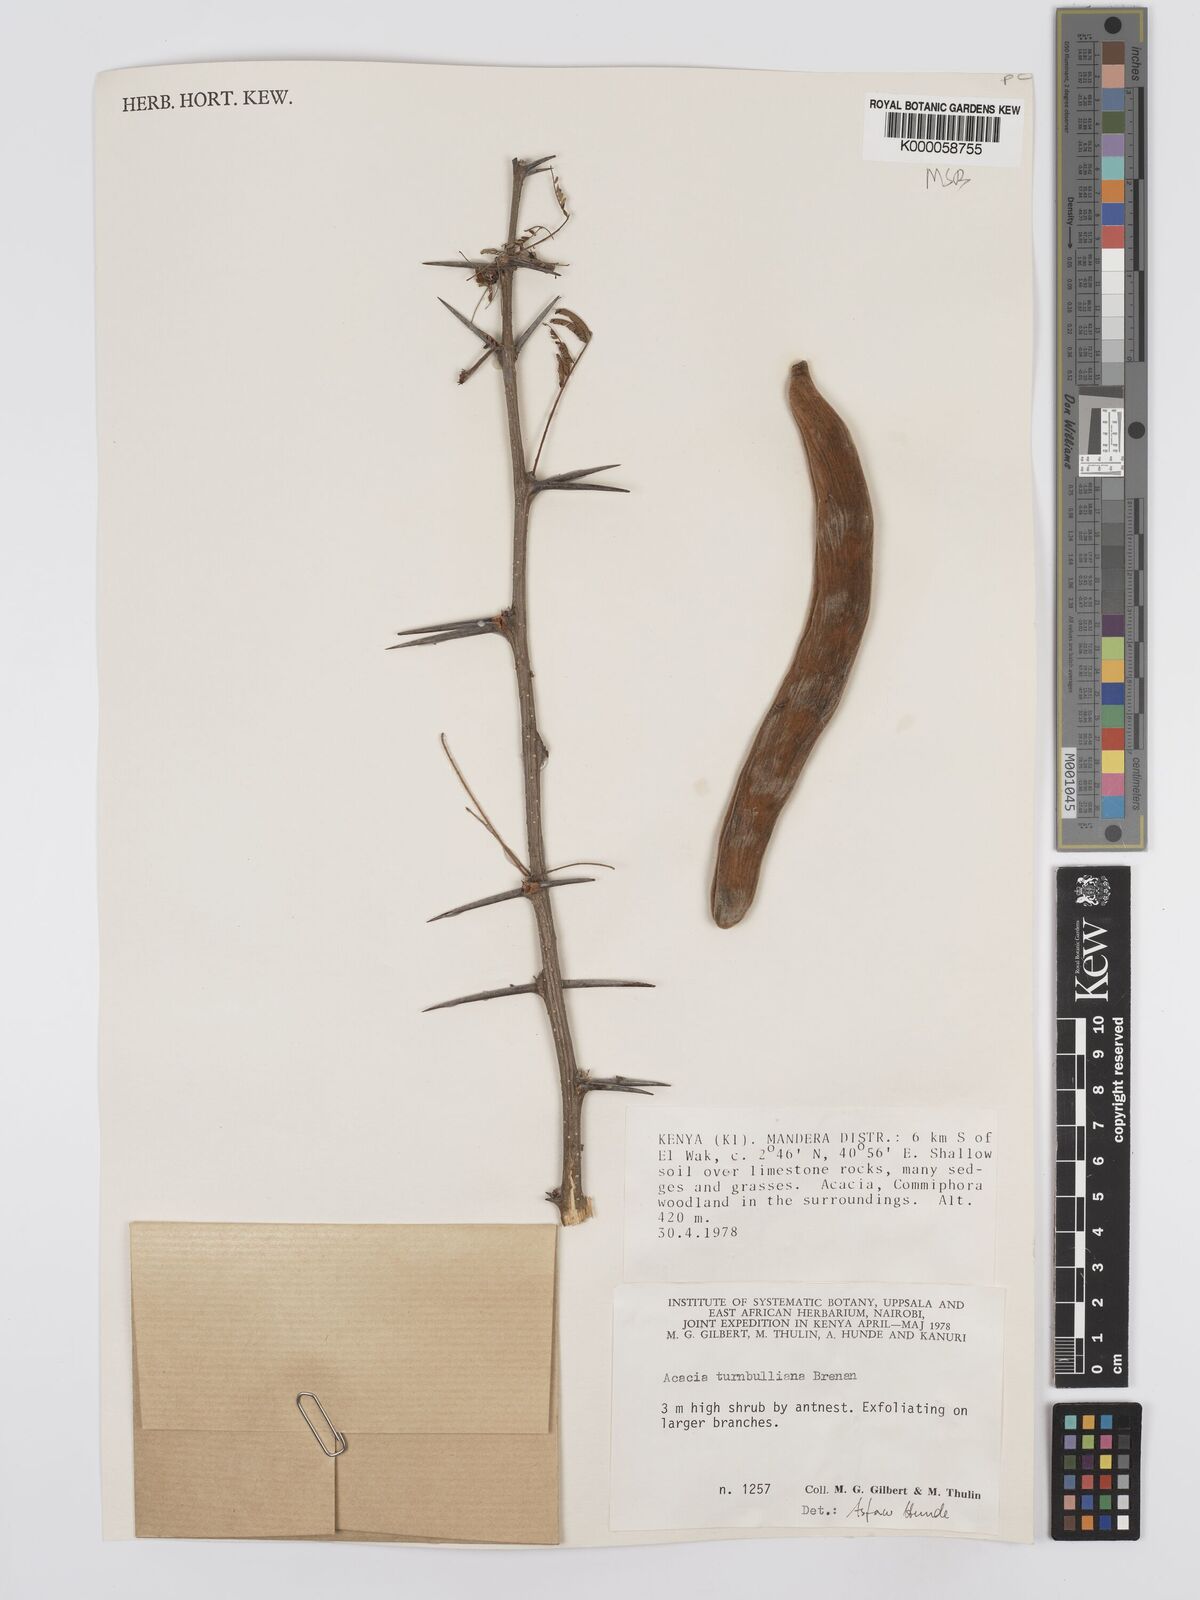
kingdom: Plantae
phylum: Tracheophyta
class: Magnoliopsida
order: Fabales
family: Fabaceae
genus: Vachellia
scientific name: Vachellia edgeworthii
